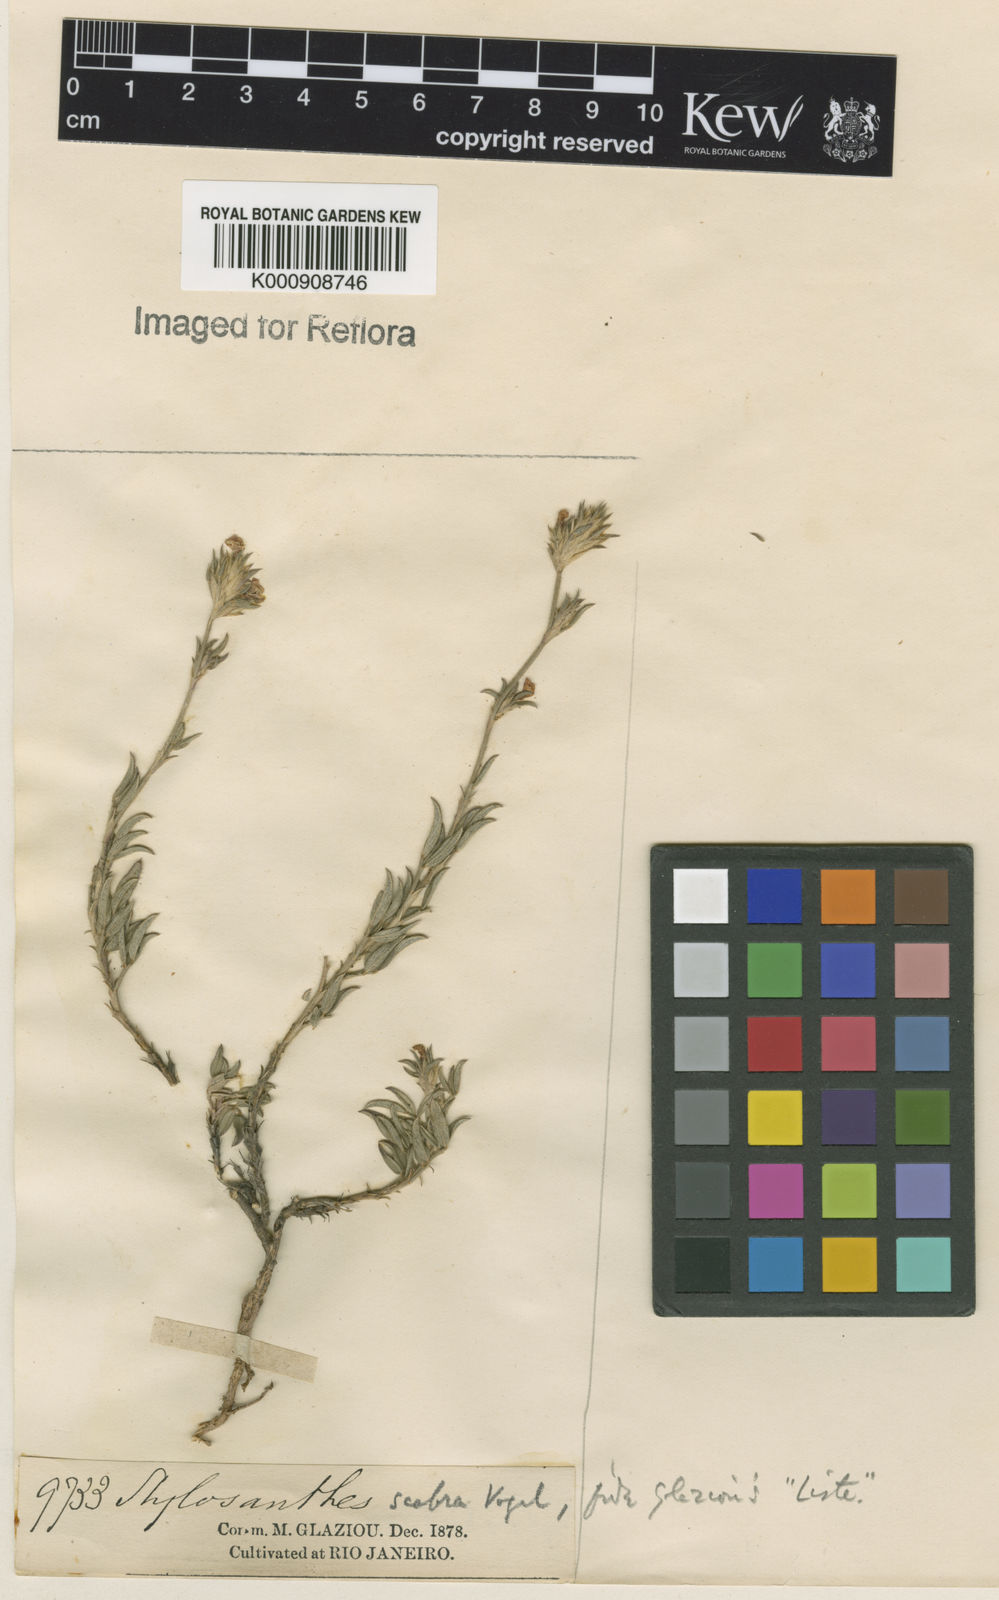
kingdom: Plantae
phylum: Tracheophyta
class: Magnoliopsida
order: Fabales
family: Fabaceae
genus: Stylosanthes
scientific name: Stylosanthes scabra
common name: Pencilflower
